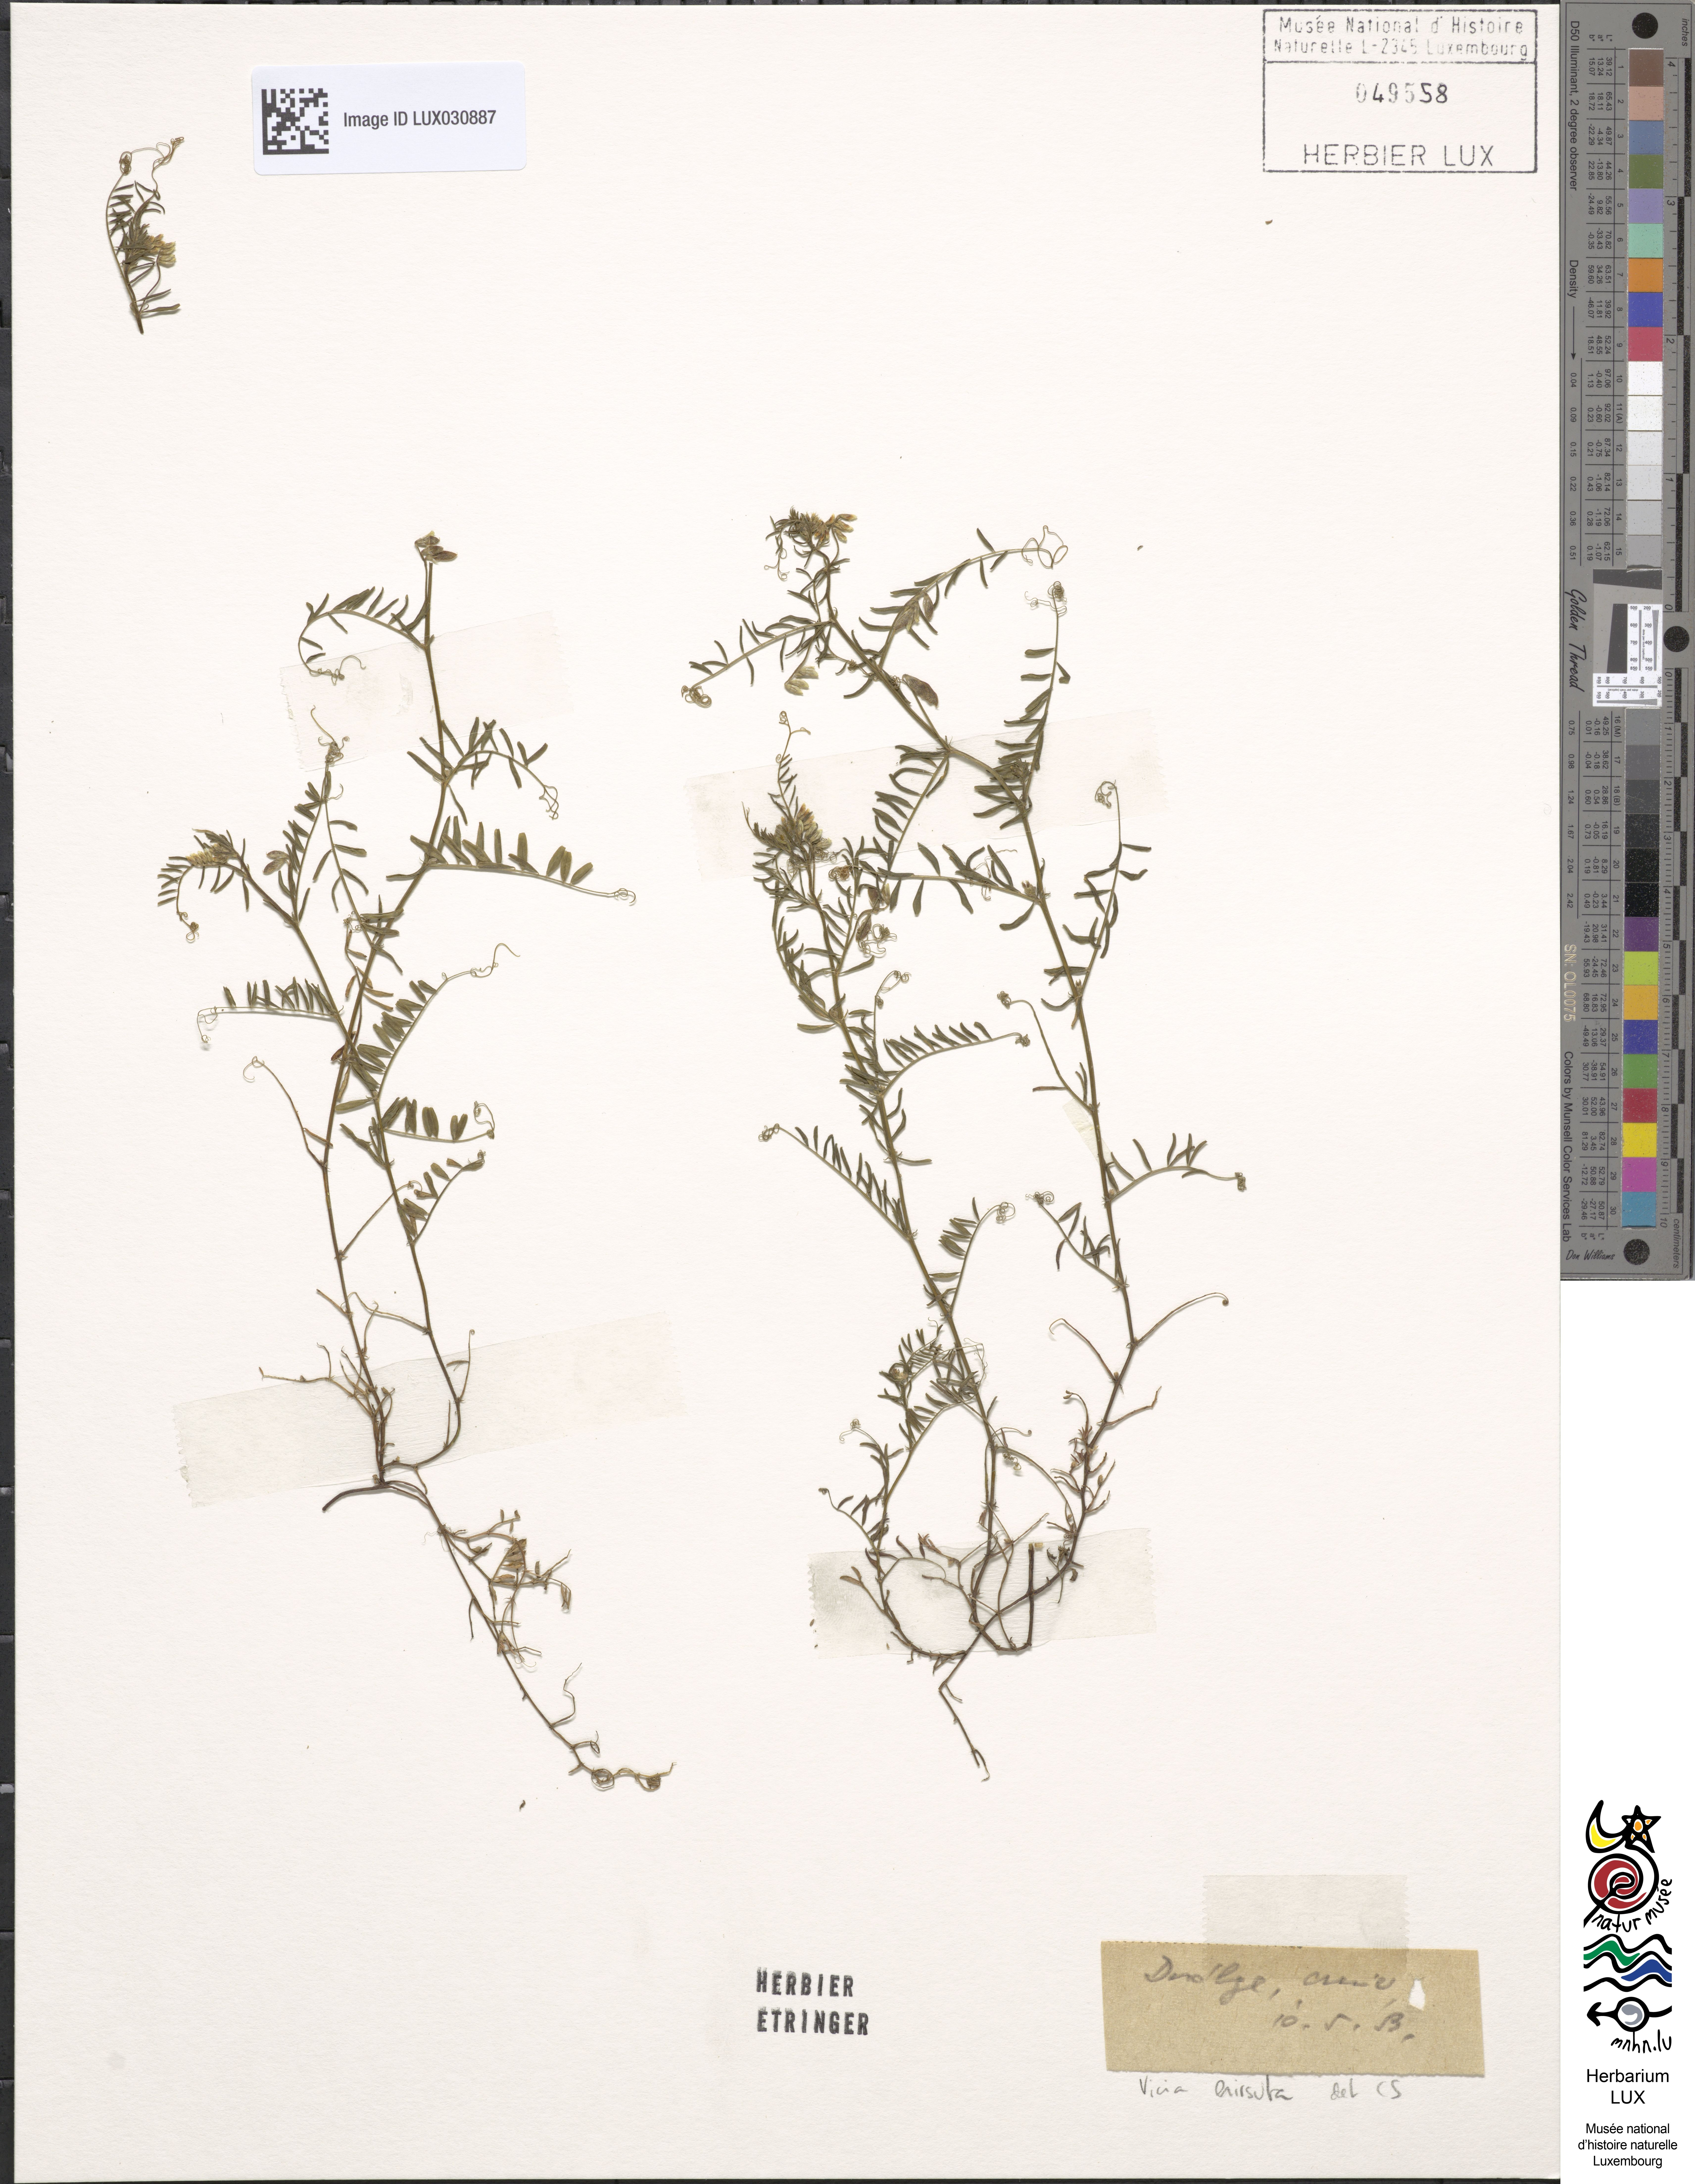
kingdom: Plantae
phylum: Tracheophyta
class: Magnoliopsida
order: Fabales
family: Fabaceae
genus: Vicia
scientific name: Vicia hirsuta
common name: Tiny vetch
